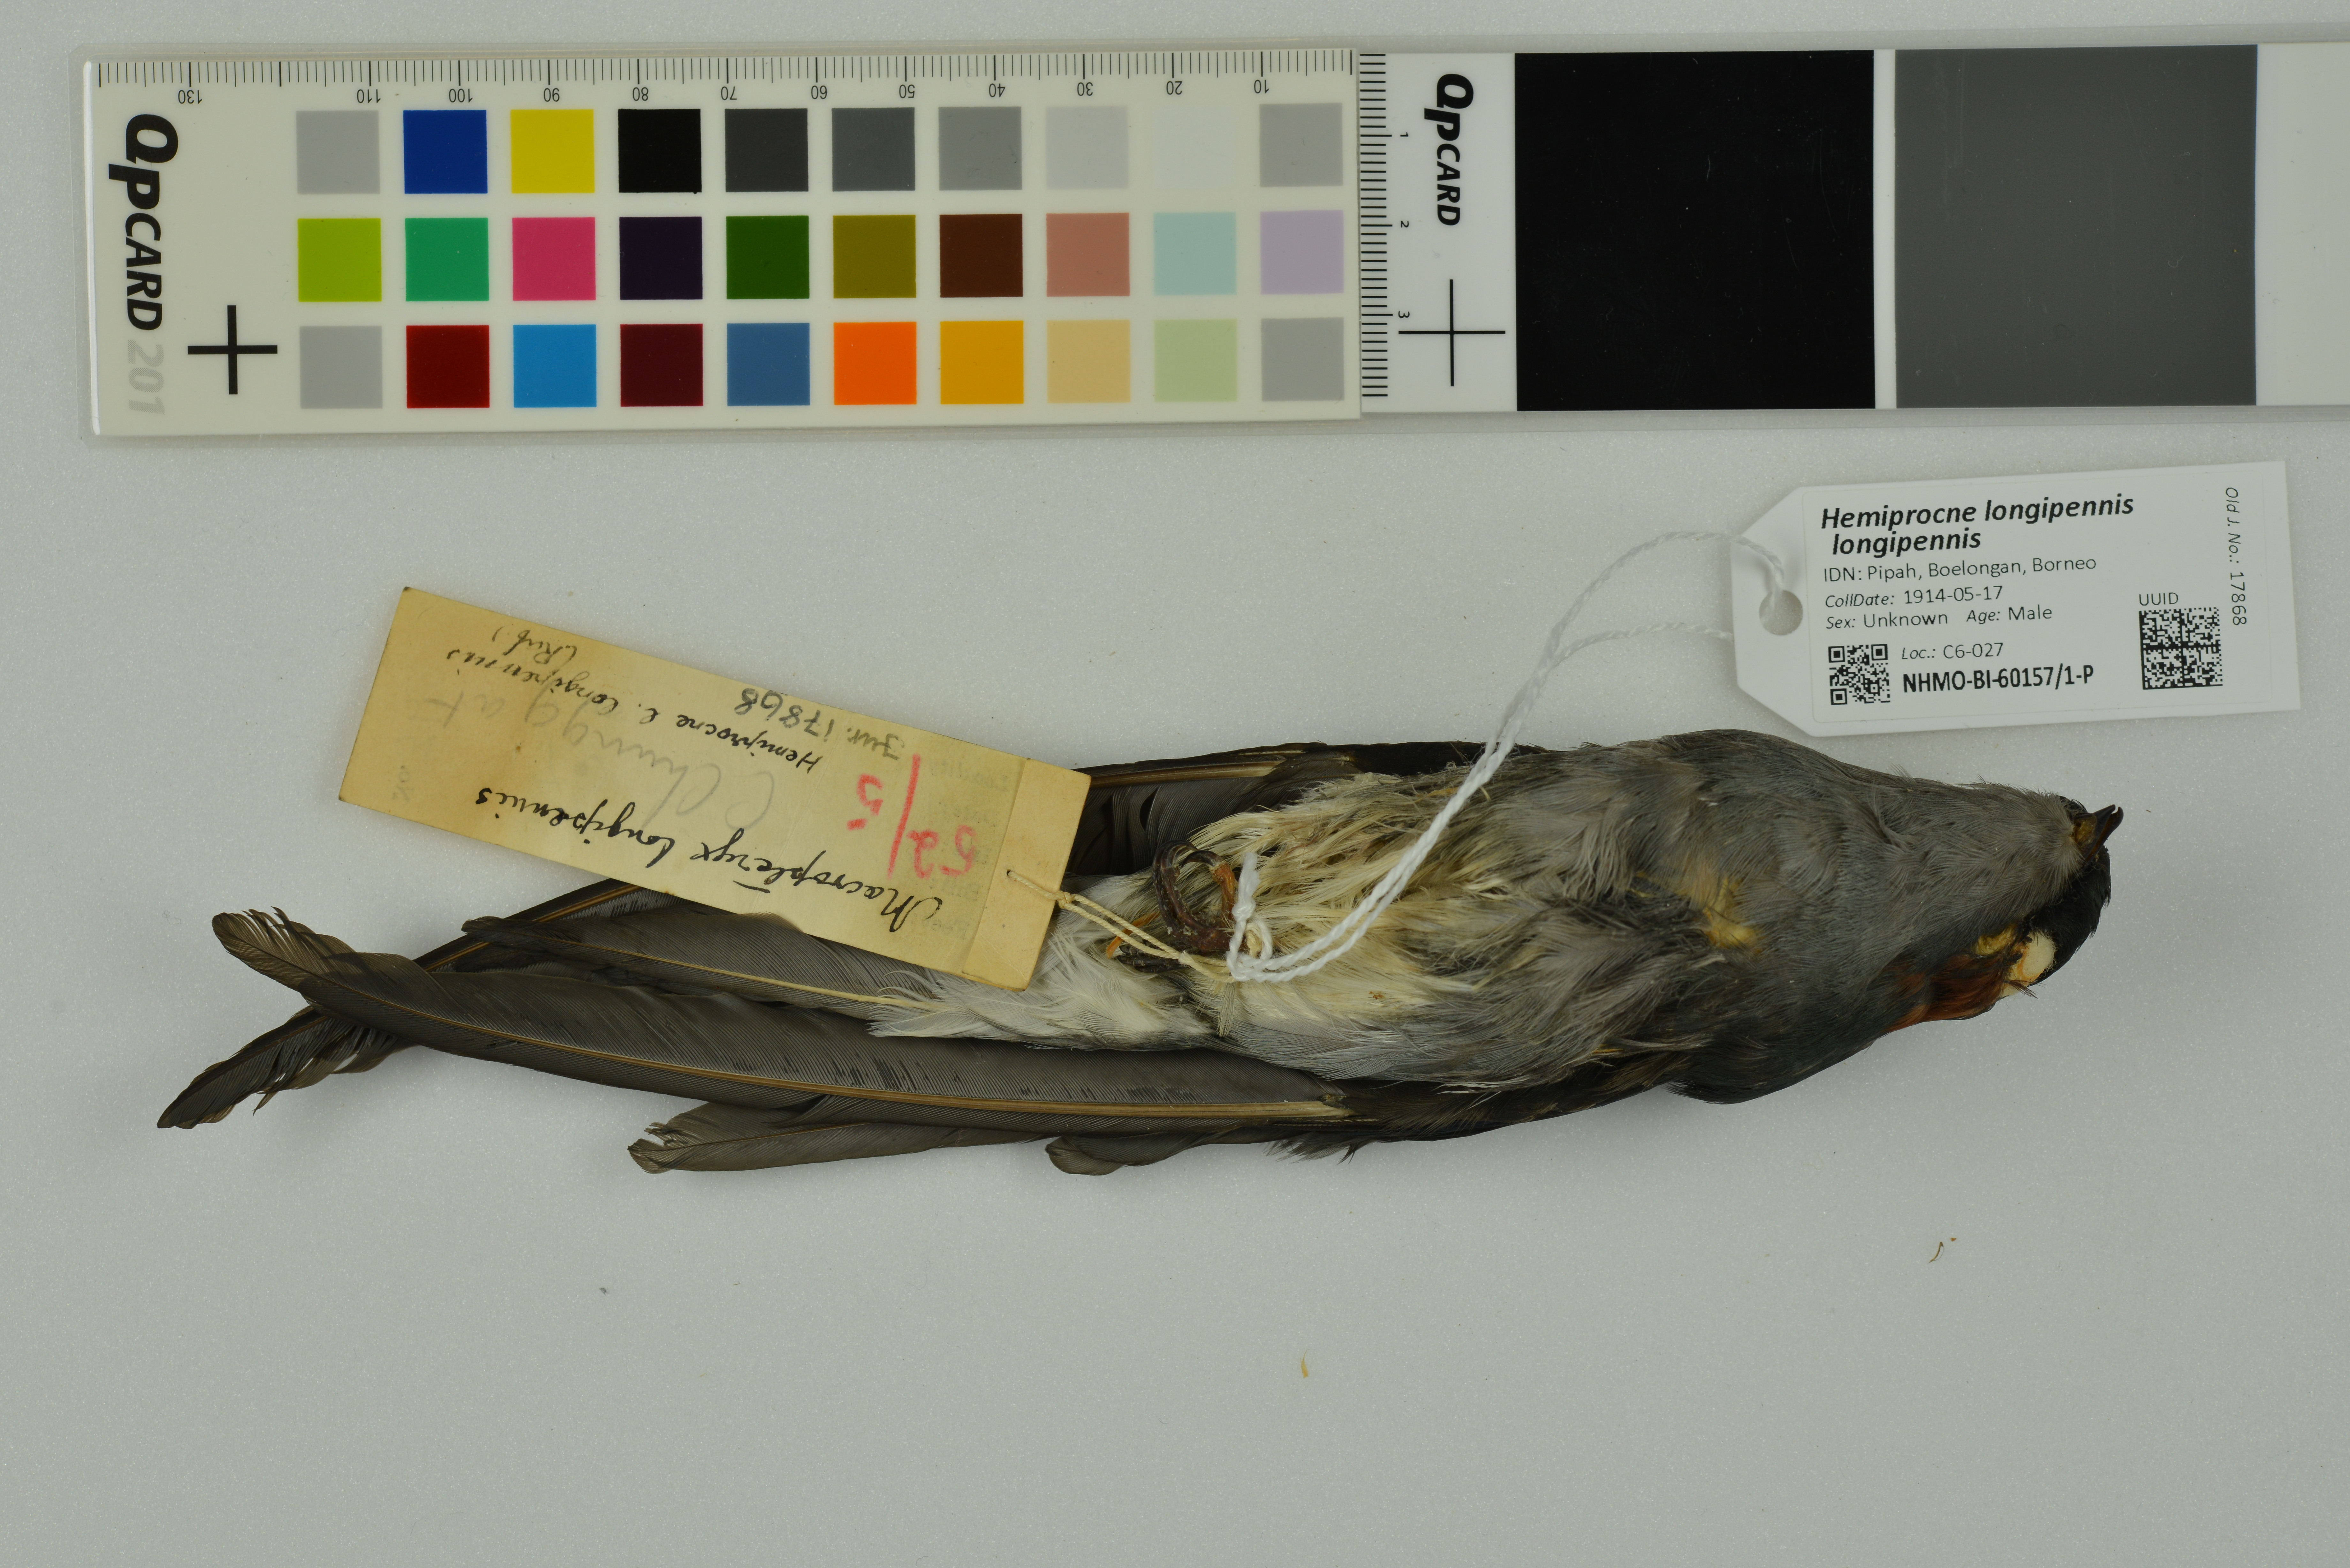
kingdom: Animalia
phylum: Chordata
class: Aves
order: Apodiformes
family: Hemiprocnidae
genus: Hemiprocne
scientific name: Hemiprocne longipennis
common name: Grey-rumped treeswift
